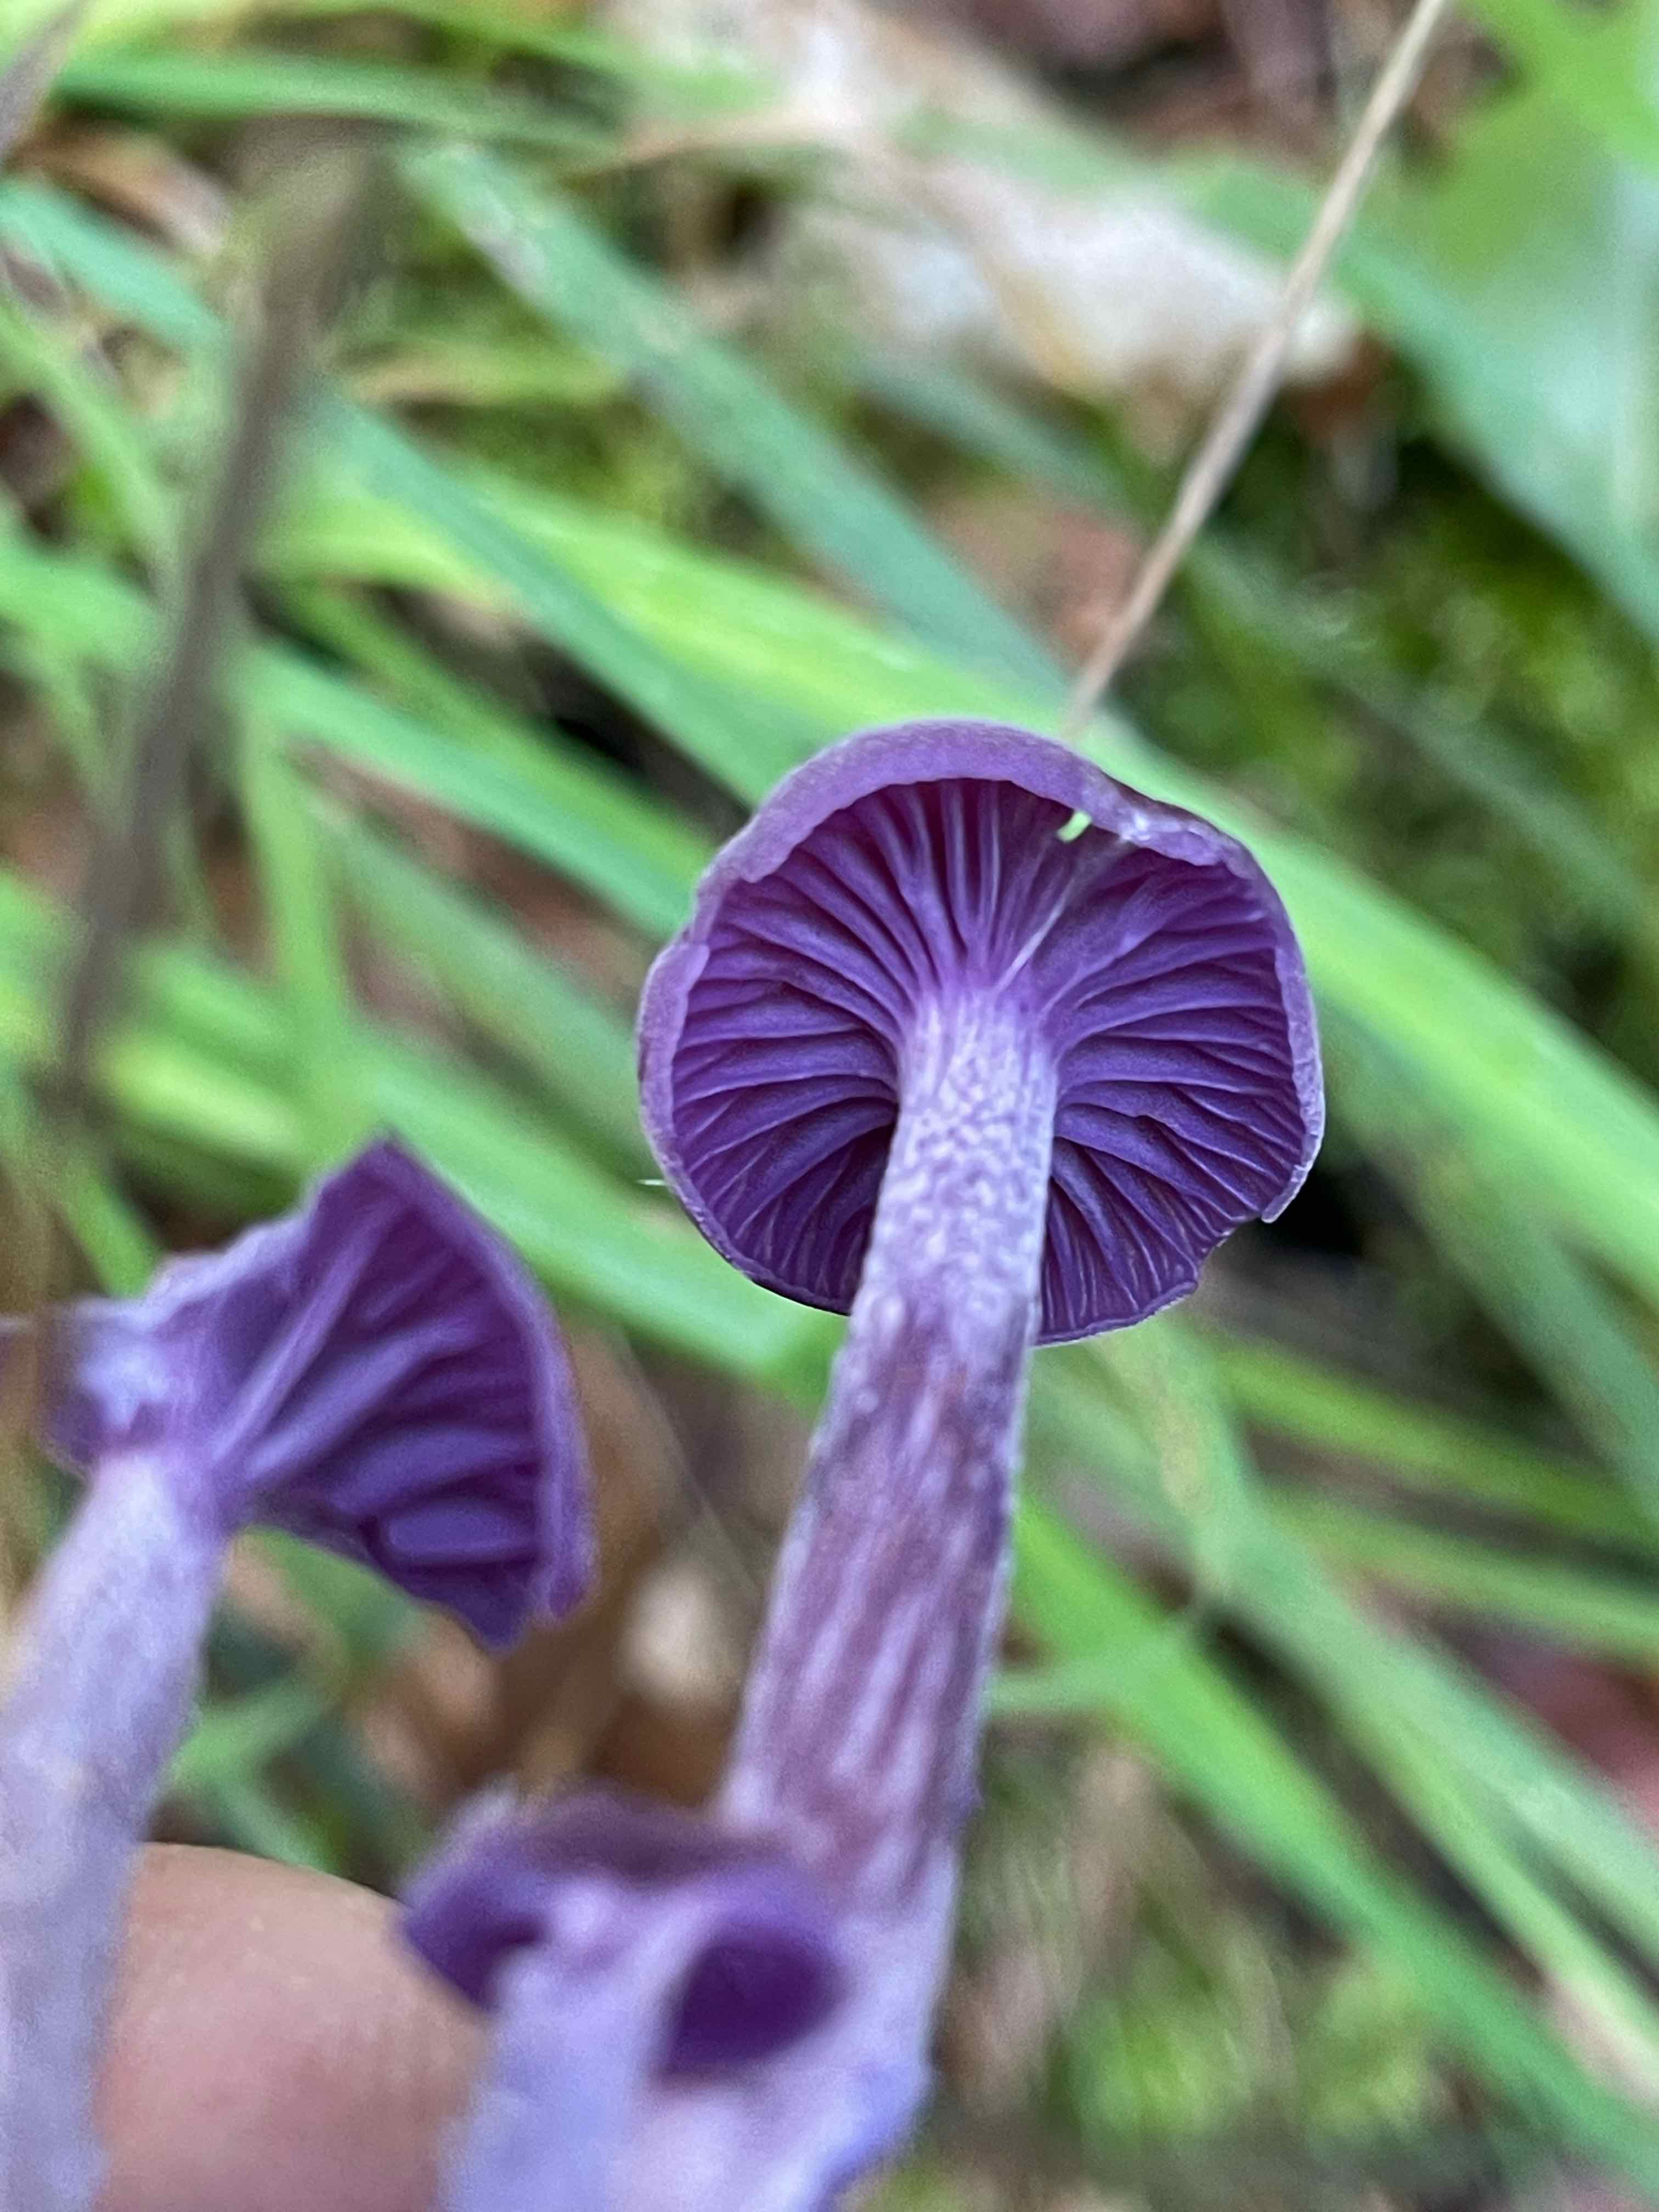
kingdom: Fungi
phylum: Basidiomycota
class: Agaricomycetes
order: Agaricales
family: Hydnangiaceae
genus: Laccaria
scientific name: Laccaria amethystina
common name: violet ametysthat
